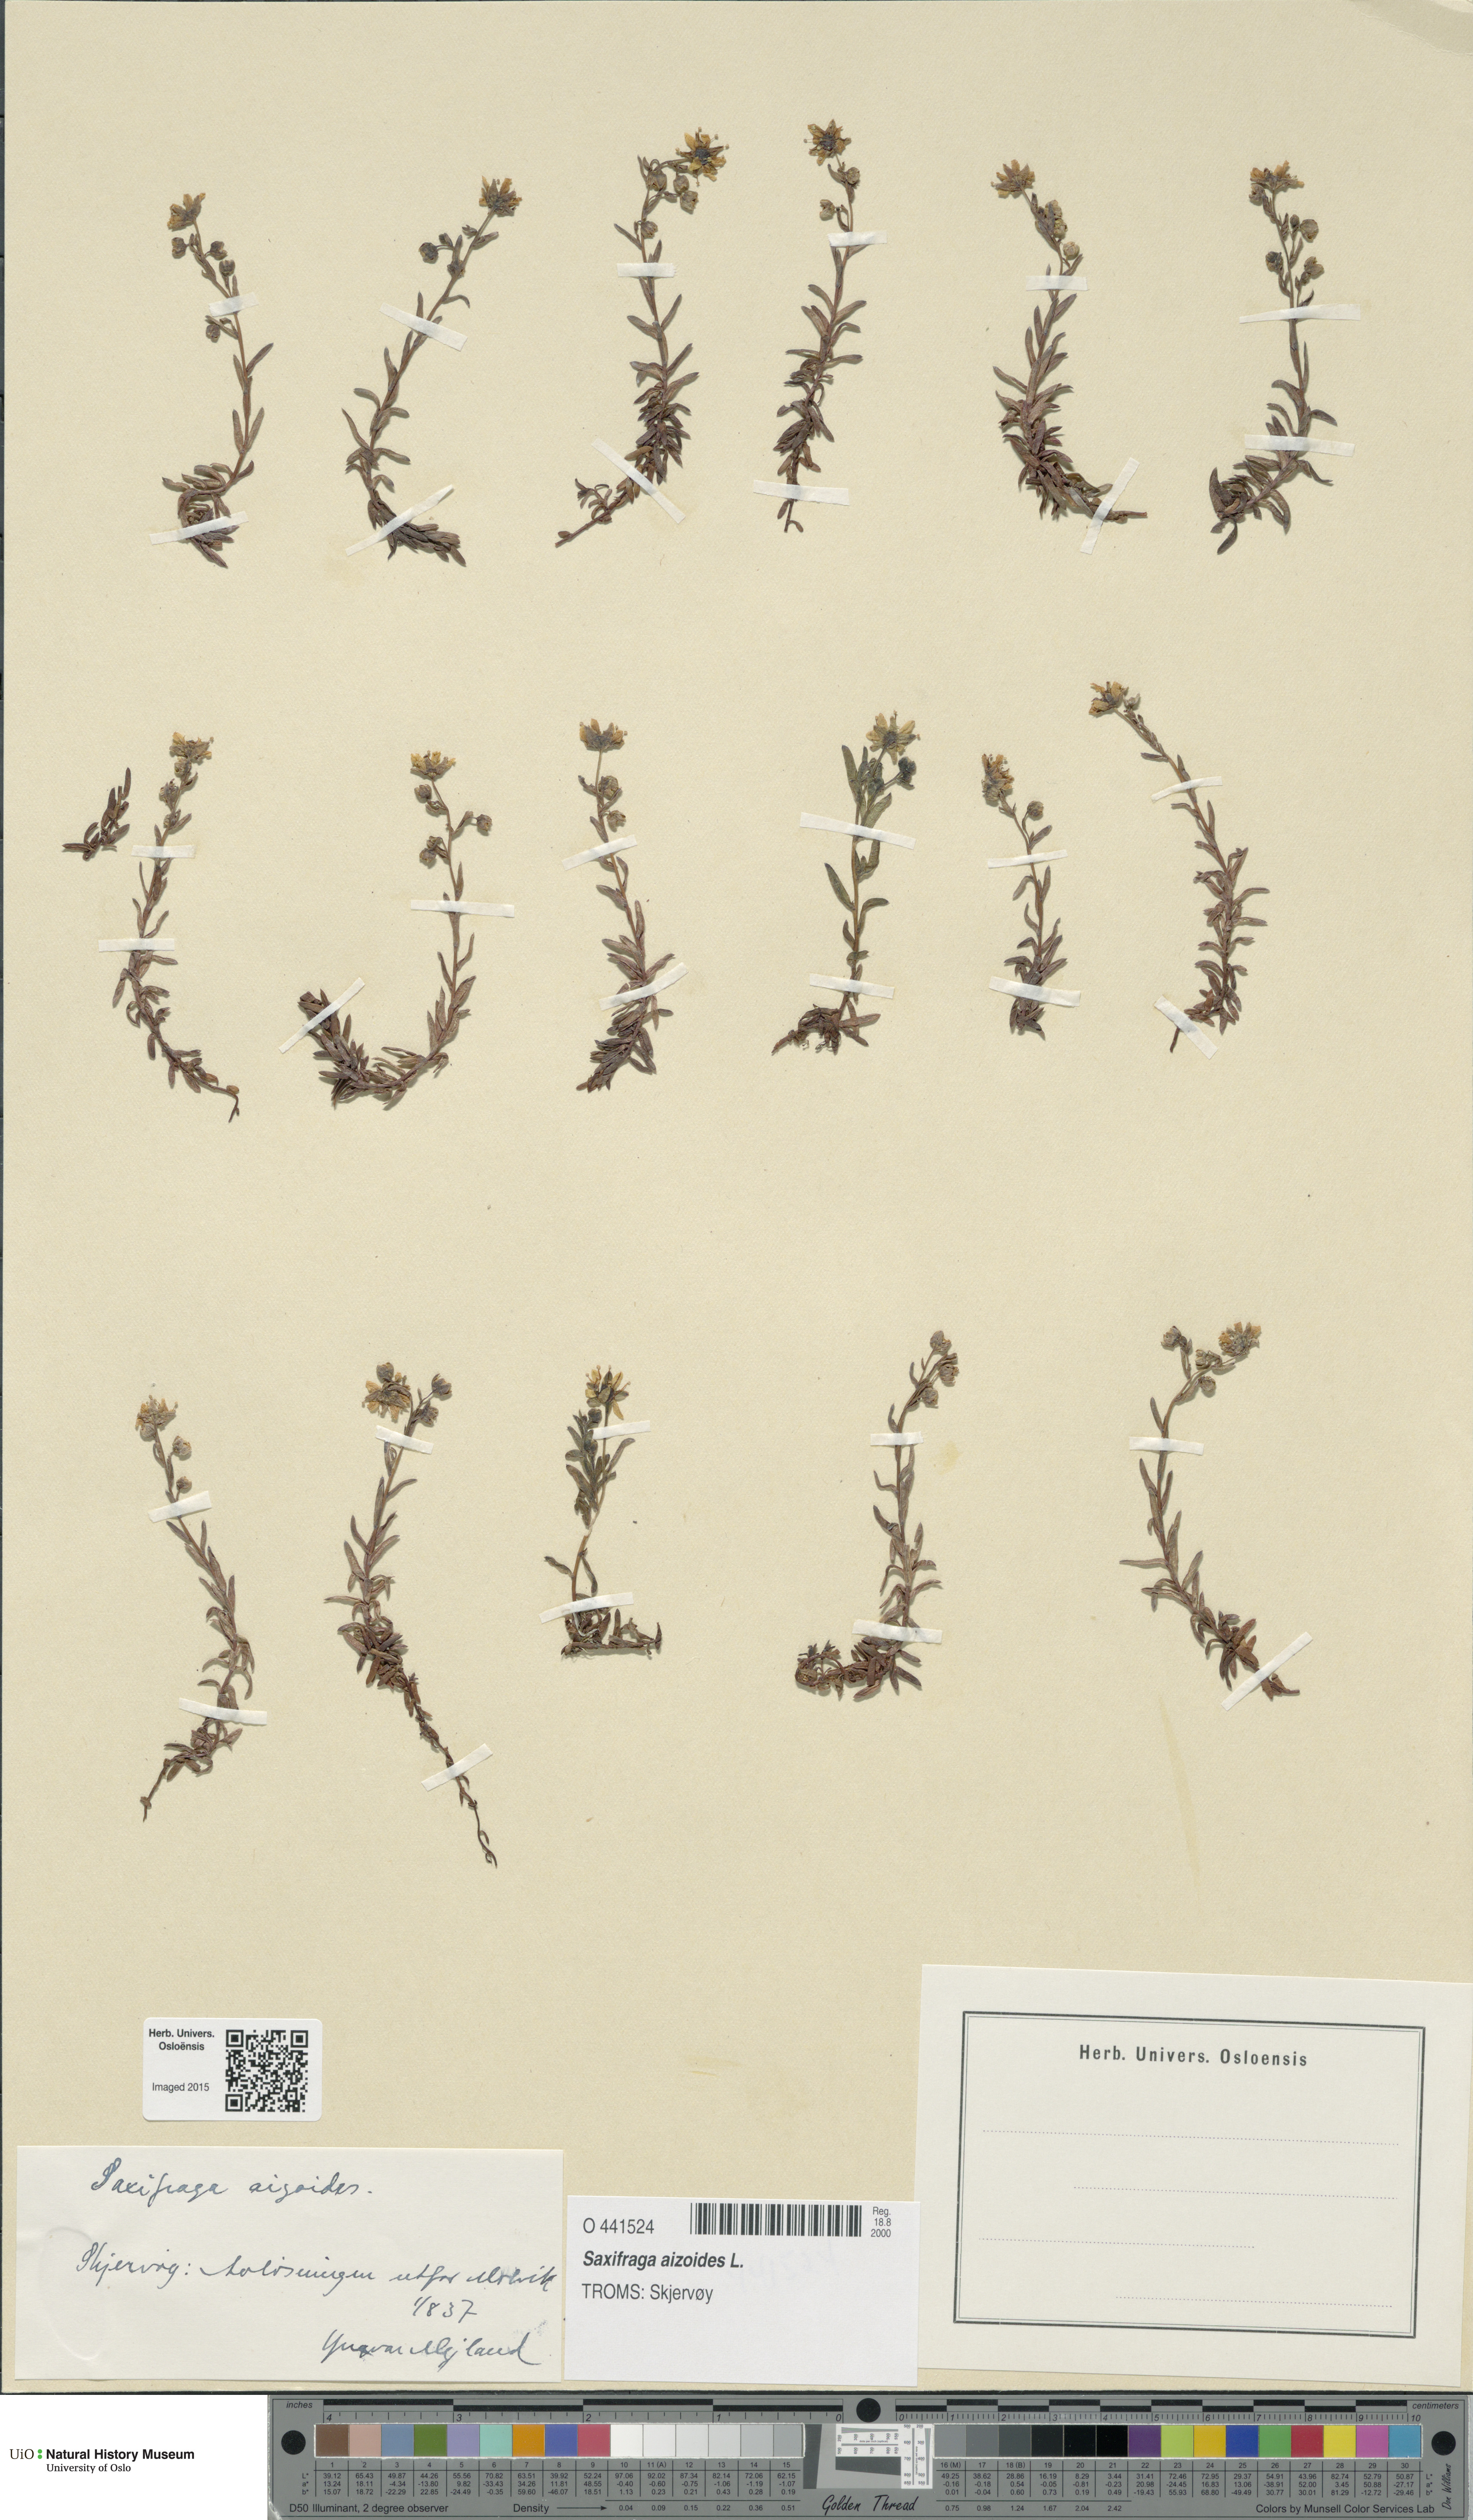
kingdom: Plantae
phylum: Tracheophyta
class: Magnoliopsida
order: Saxifragales
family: Saxifragaceae
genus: Saxifraga
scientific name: Saxifraga aizoides
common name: Yellow mountain saxifrage
